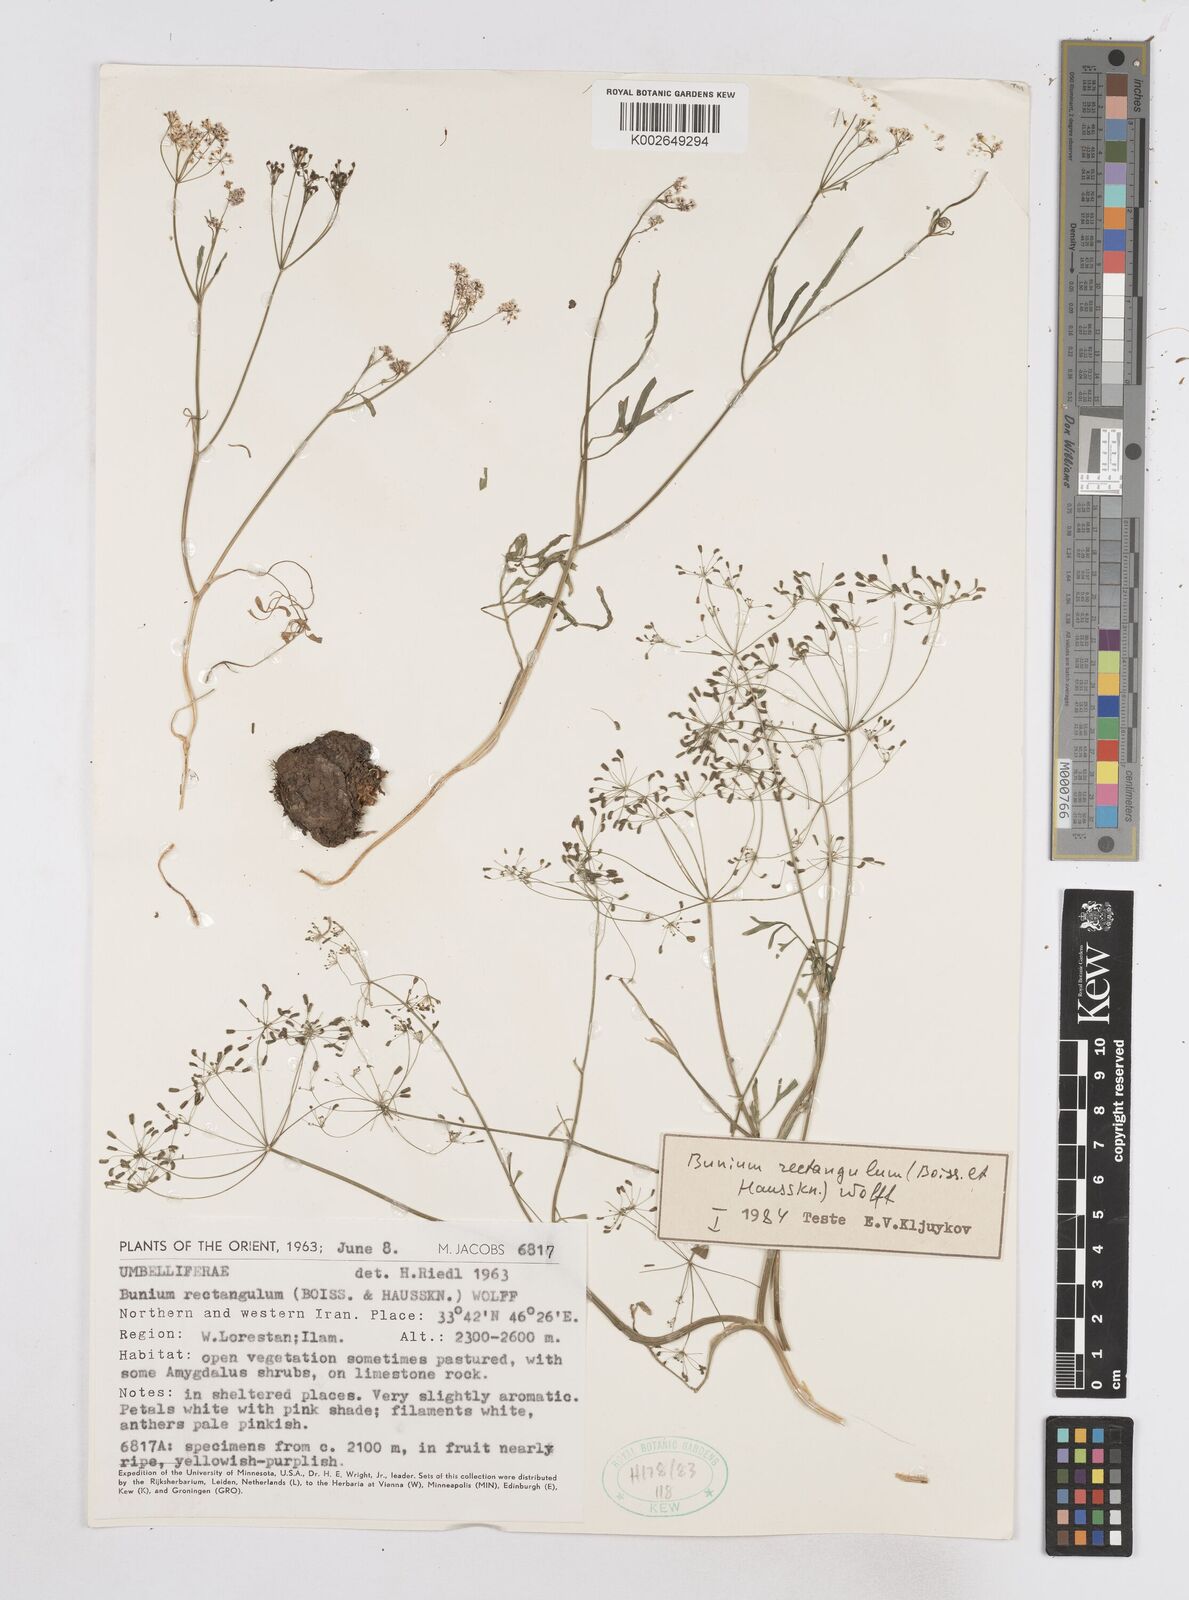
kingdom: Plantae
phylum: Tracheophyta
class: Magnoliopsida
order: Apiales
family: Apiaceae
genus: Bunium
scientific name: Bunium rectangulum
